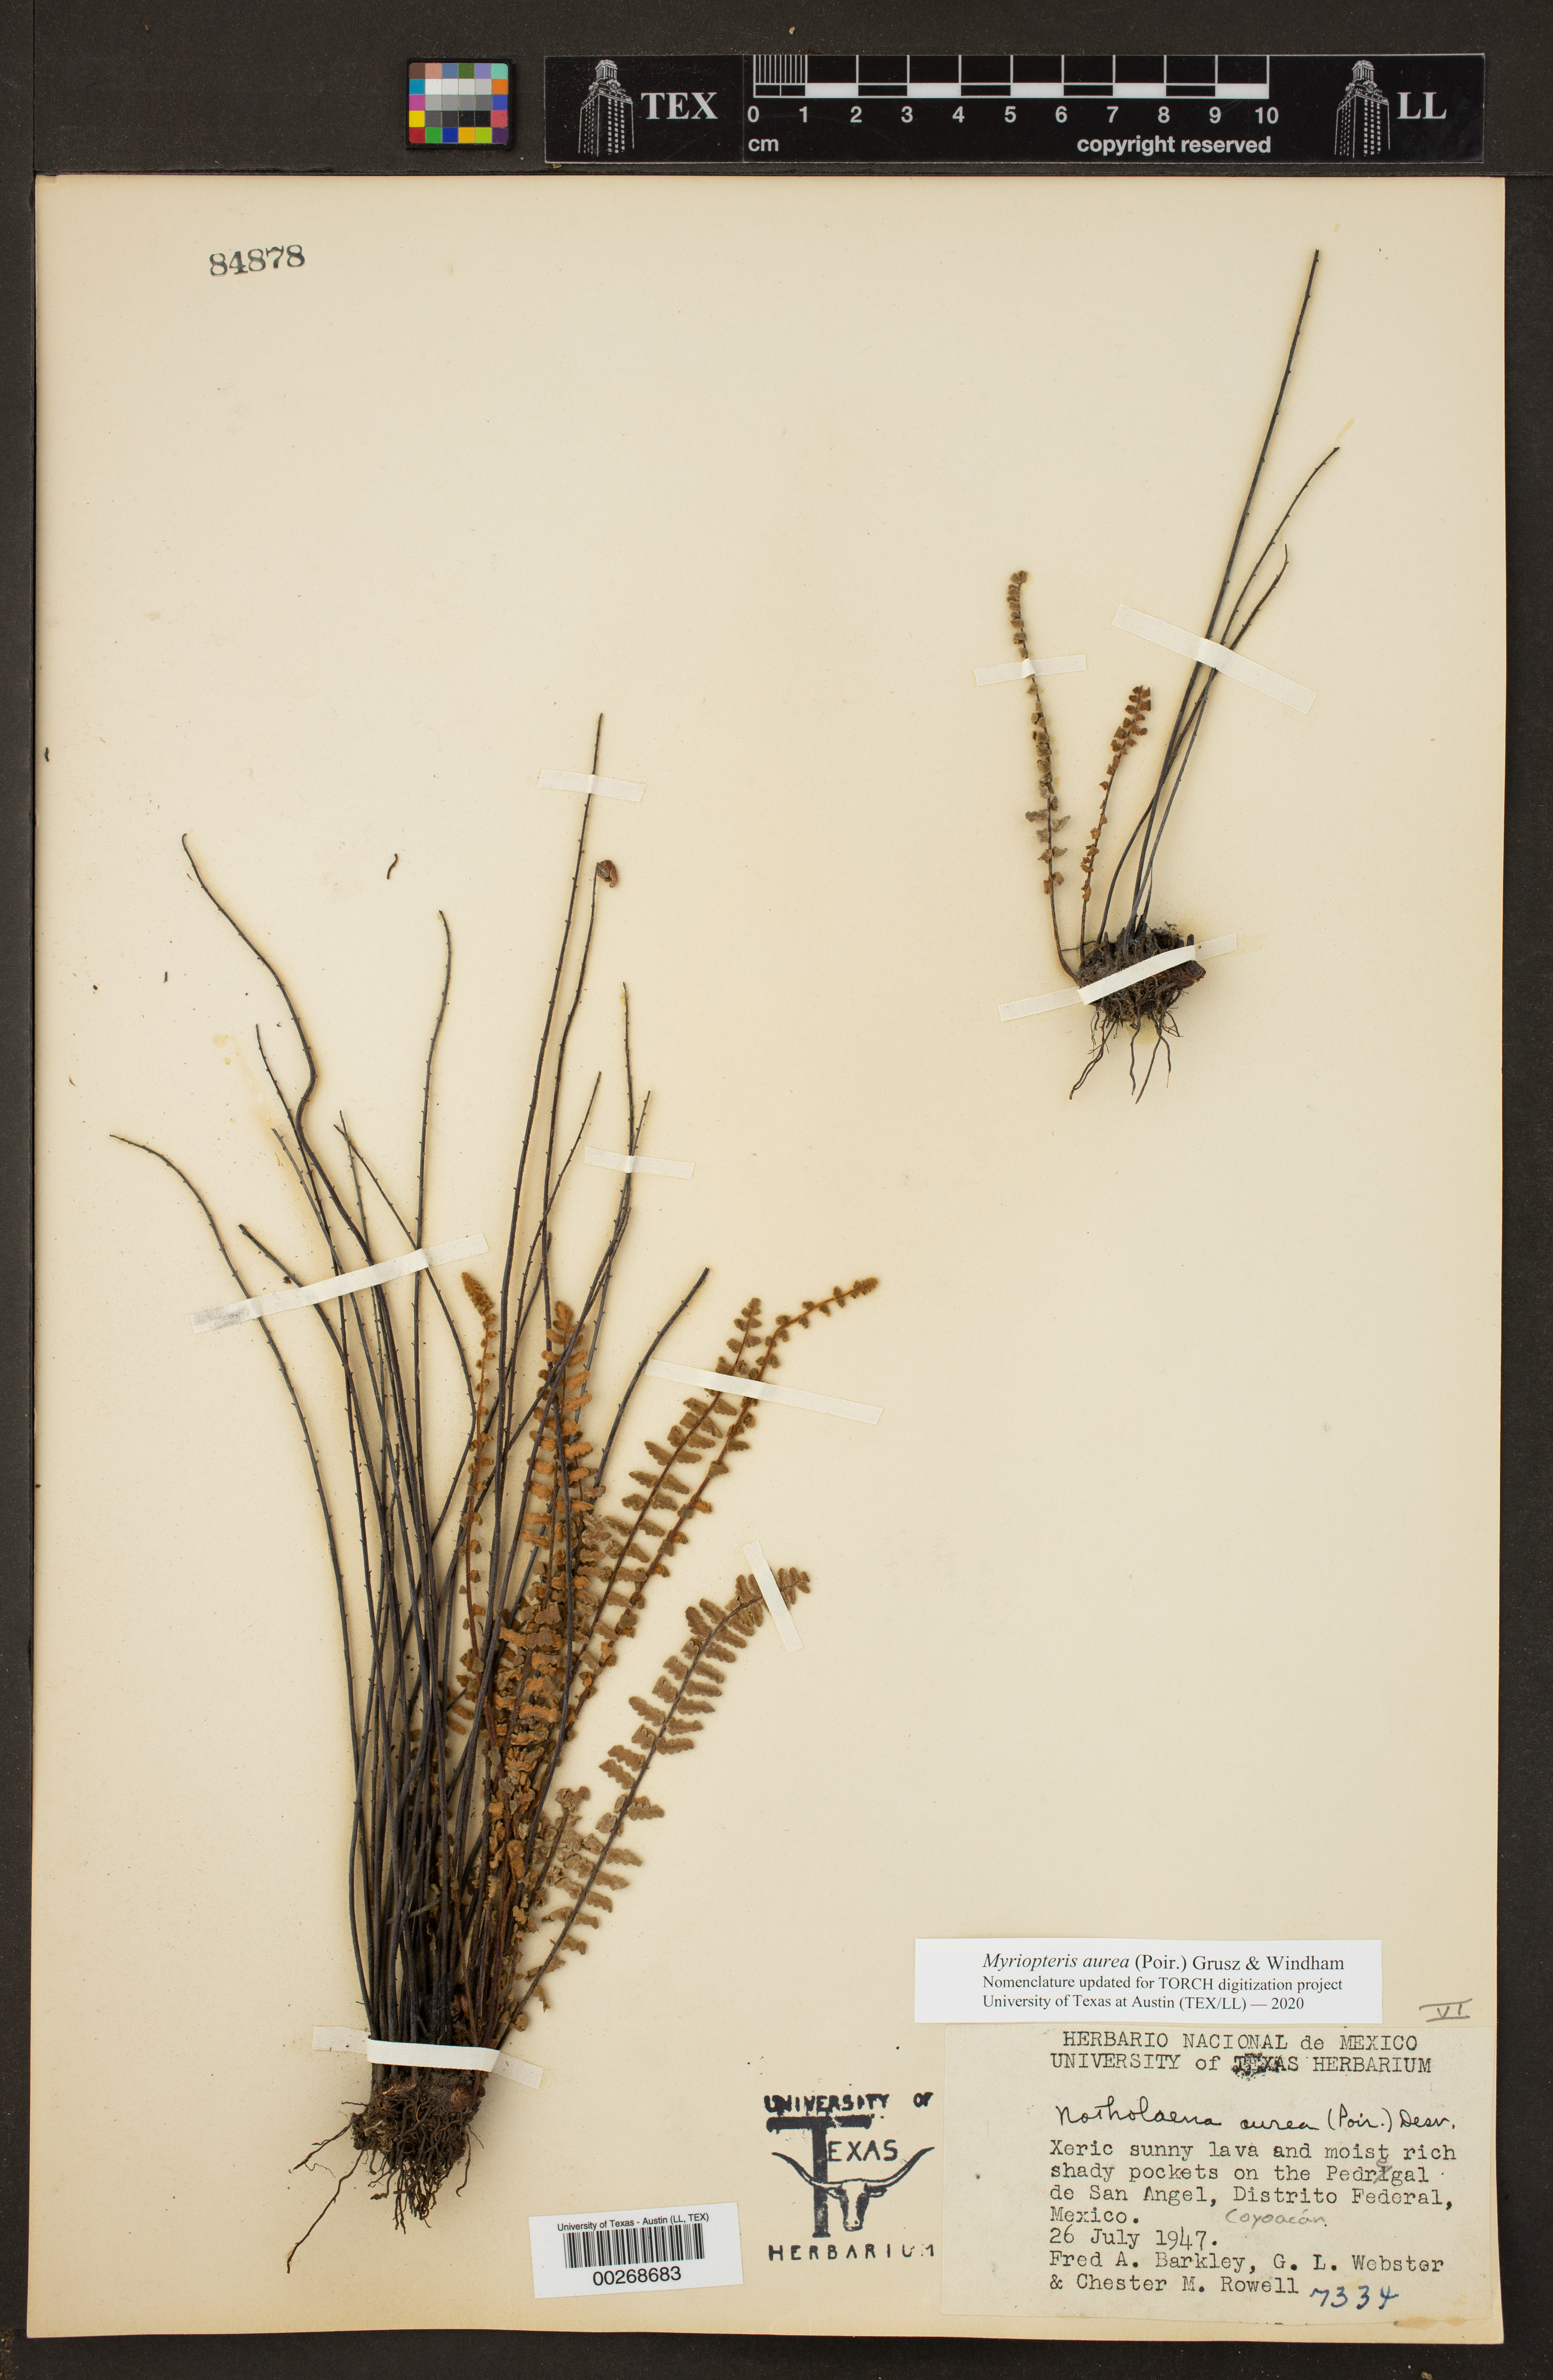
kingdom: Plantae
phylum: Tracheophyta
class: Polypodiopsida
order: Polypodiales
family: Pteridaceae
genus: Myriopteris
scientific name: Myriopteris aurea
